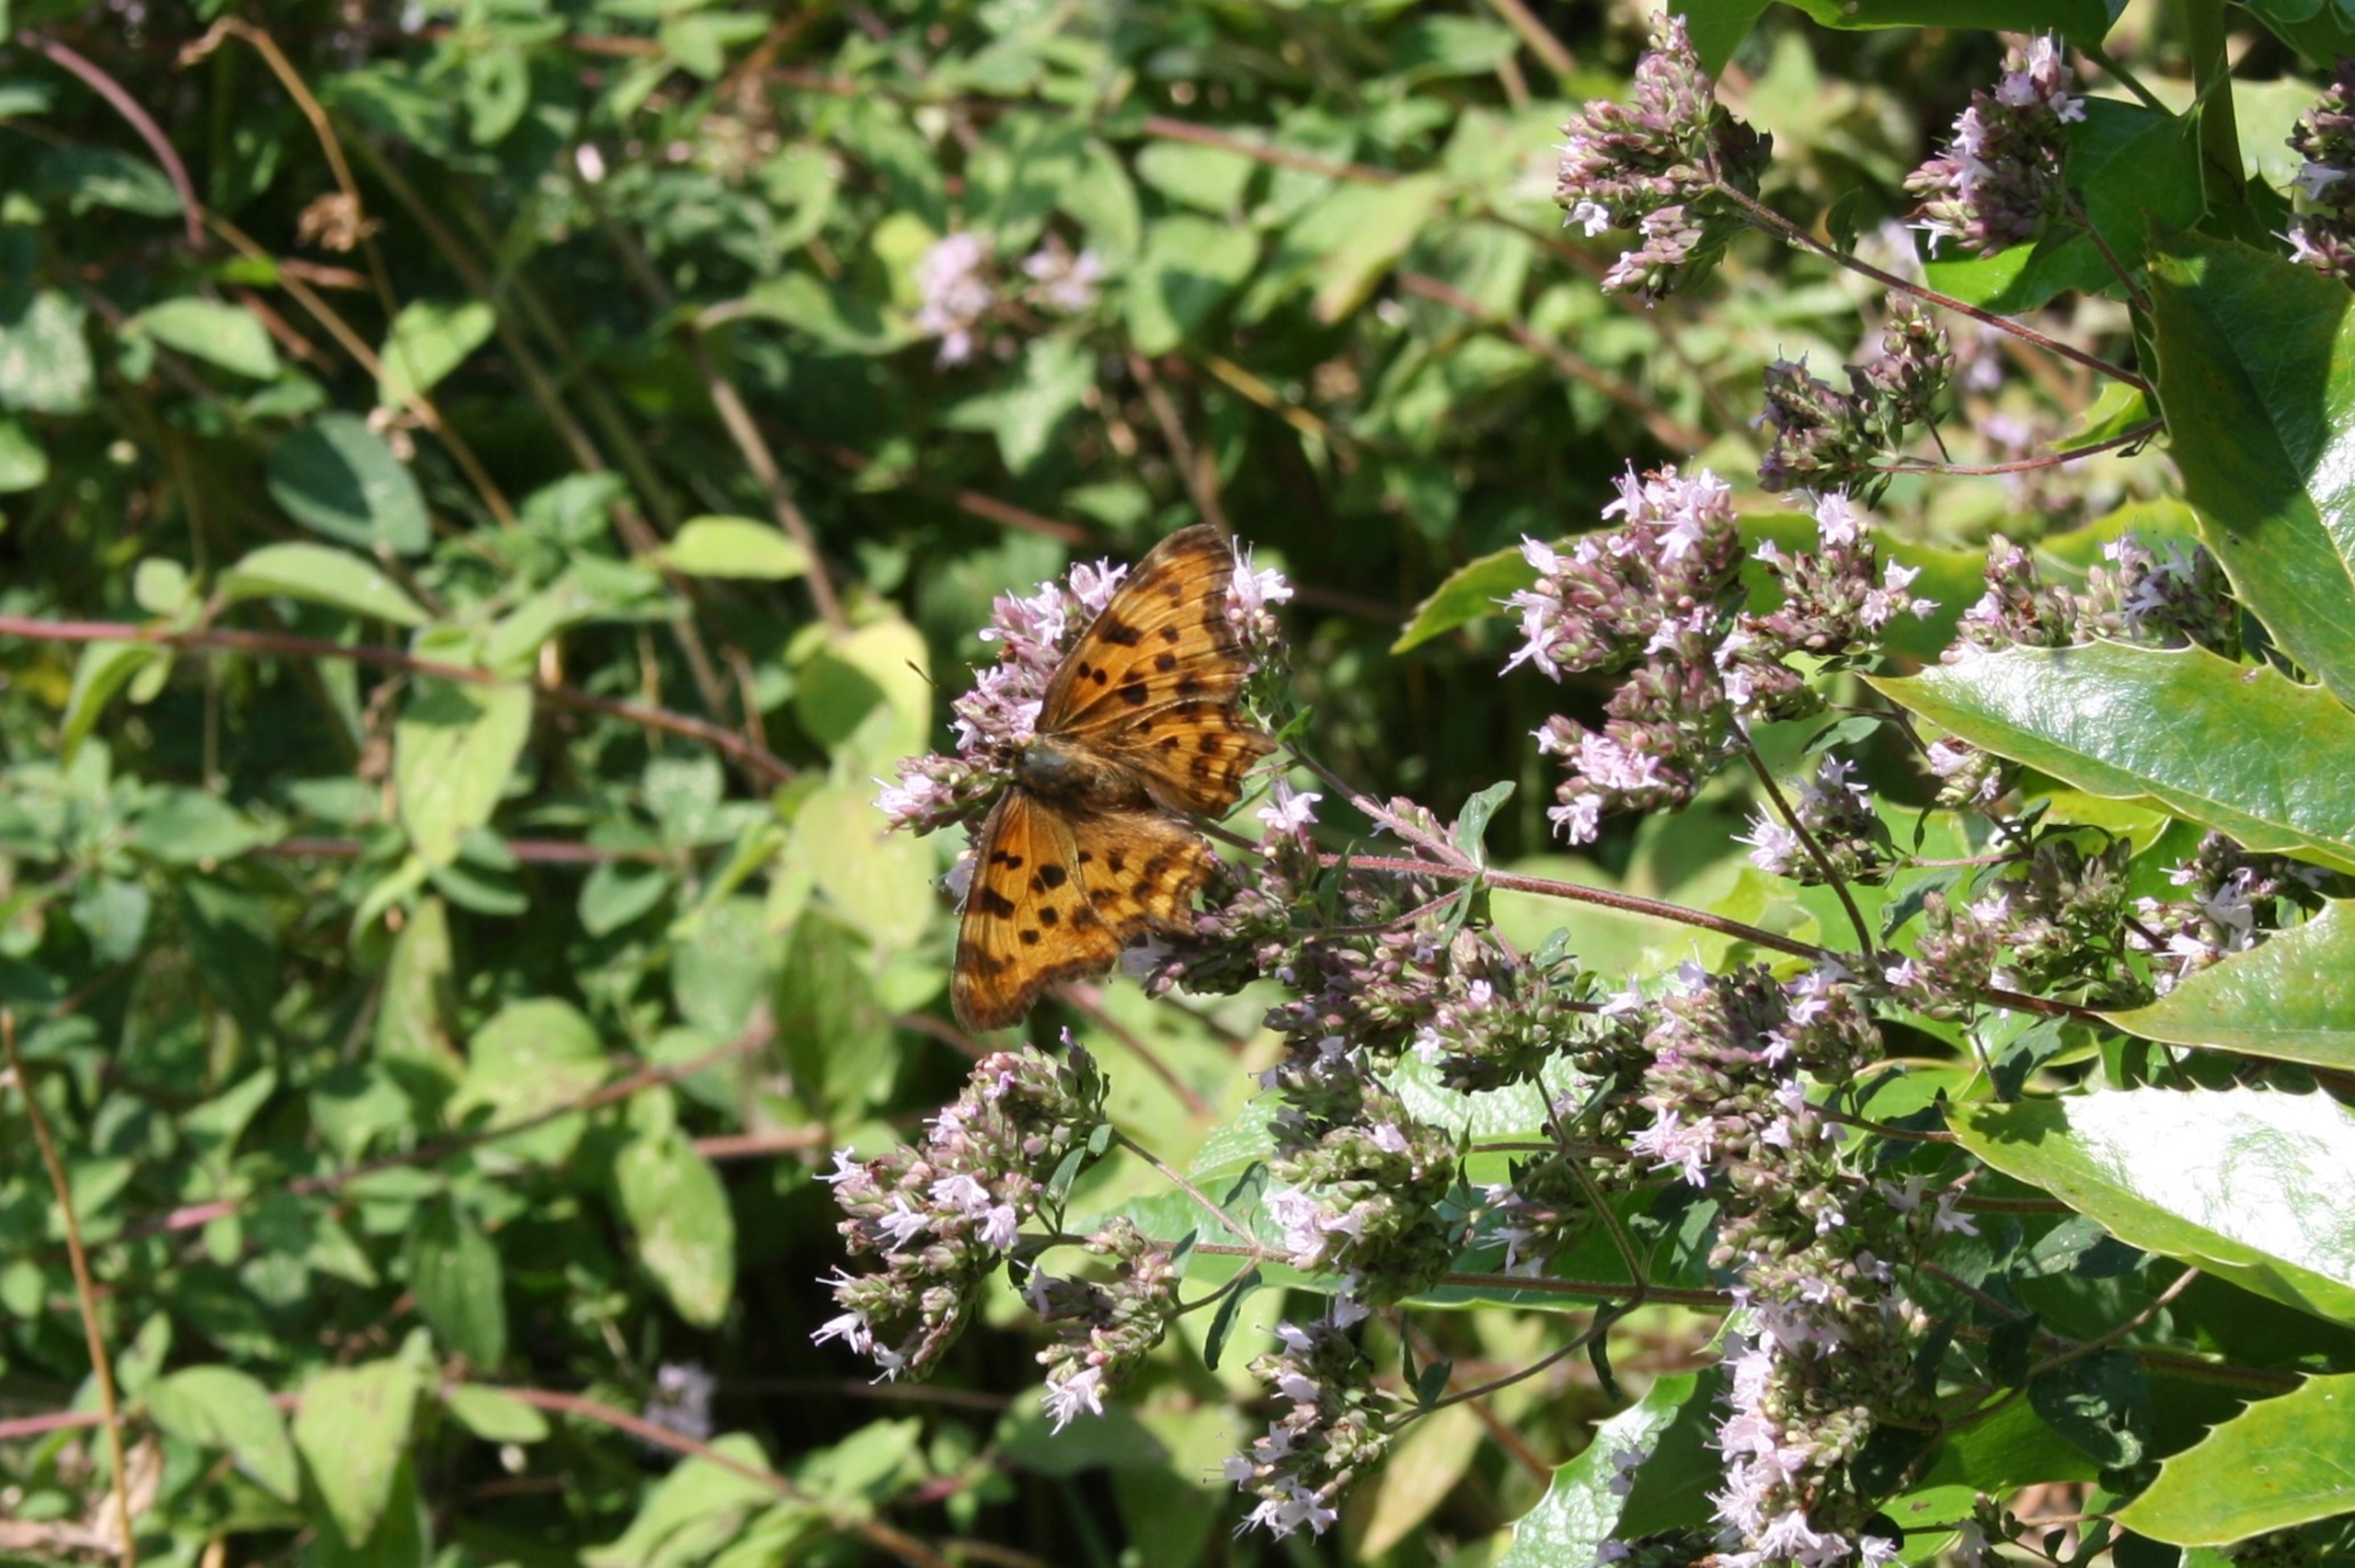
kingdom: Animalia
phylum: Arthropoda
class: Insecta
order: Lepidoptera
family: Nymphalidae
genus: Polygonia
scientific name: Polygonia c-album
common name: Det hvide C
